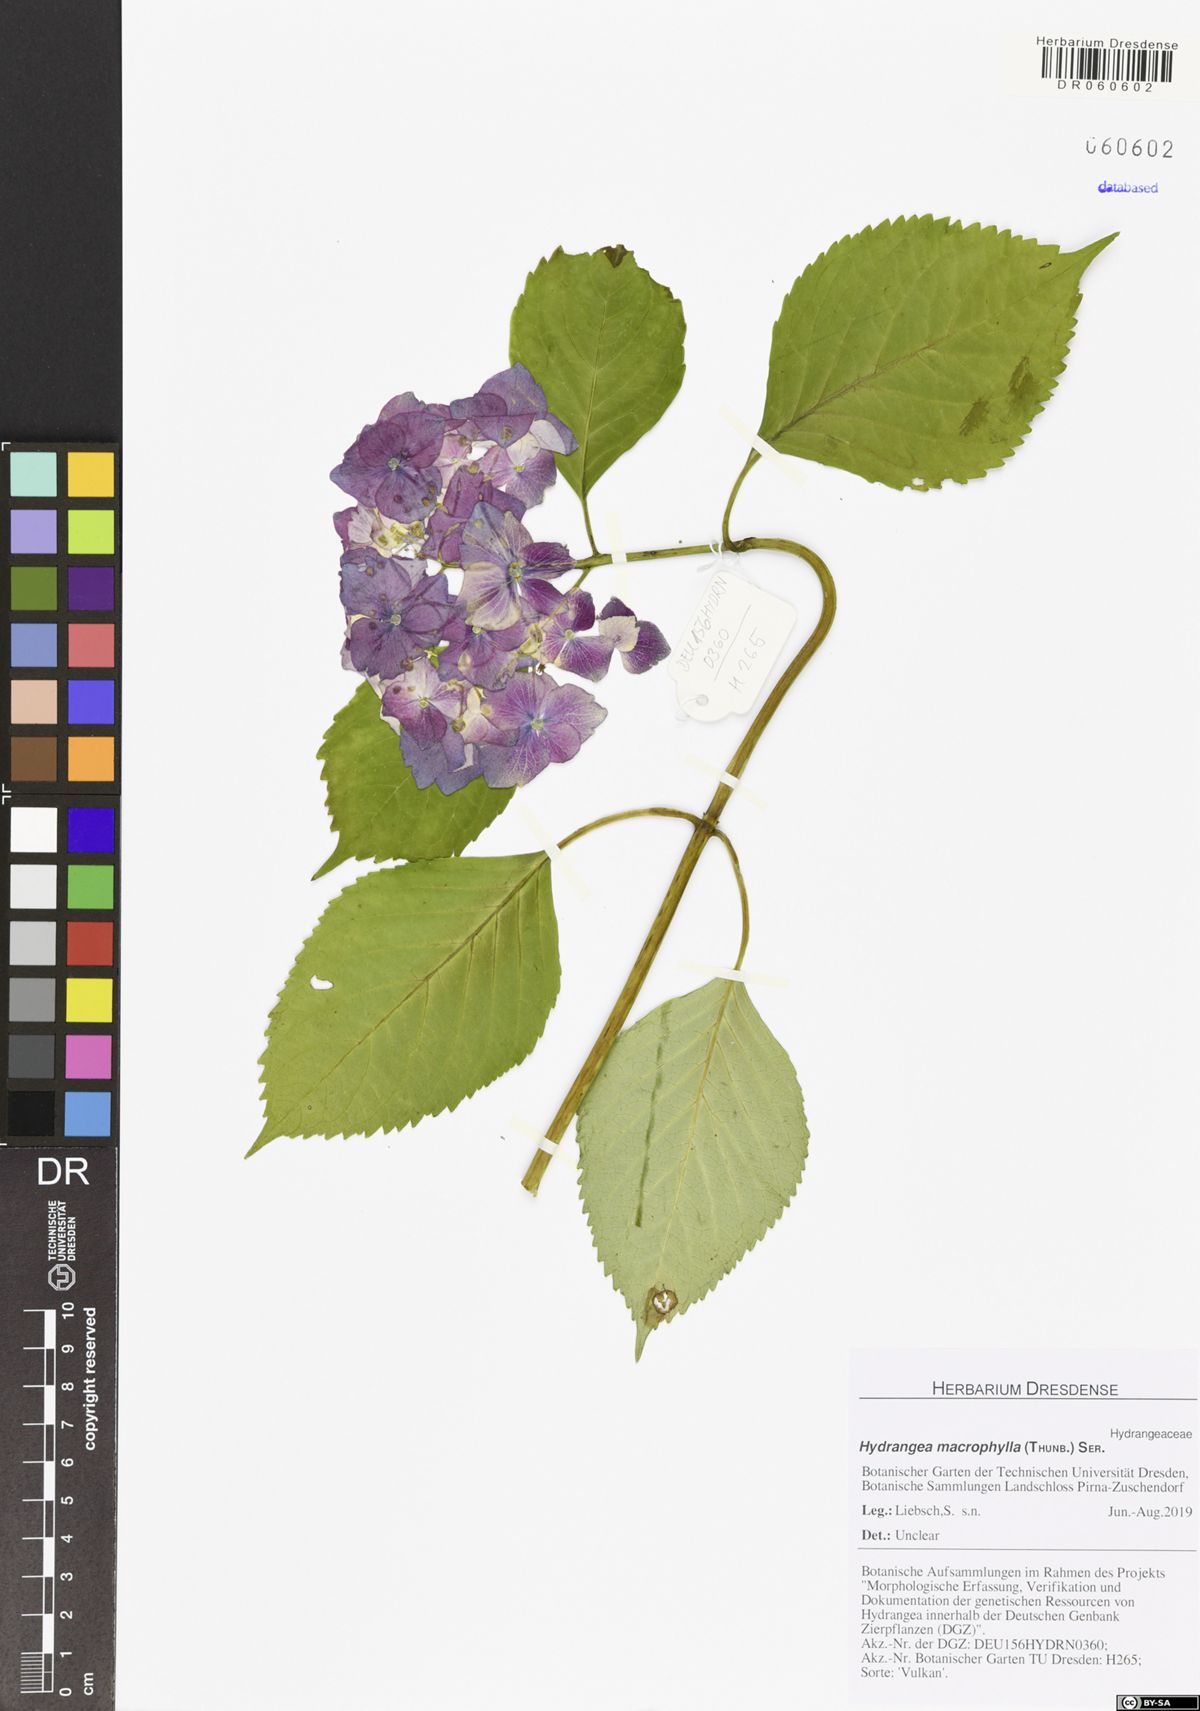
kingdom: Plantae
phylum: Tracheophyta
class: Magnoliopsida
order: Cornales
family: Hydrangeaceae
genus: Hydrangea
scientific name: Hydrangea macrophylla
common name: Hydrangea
